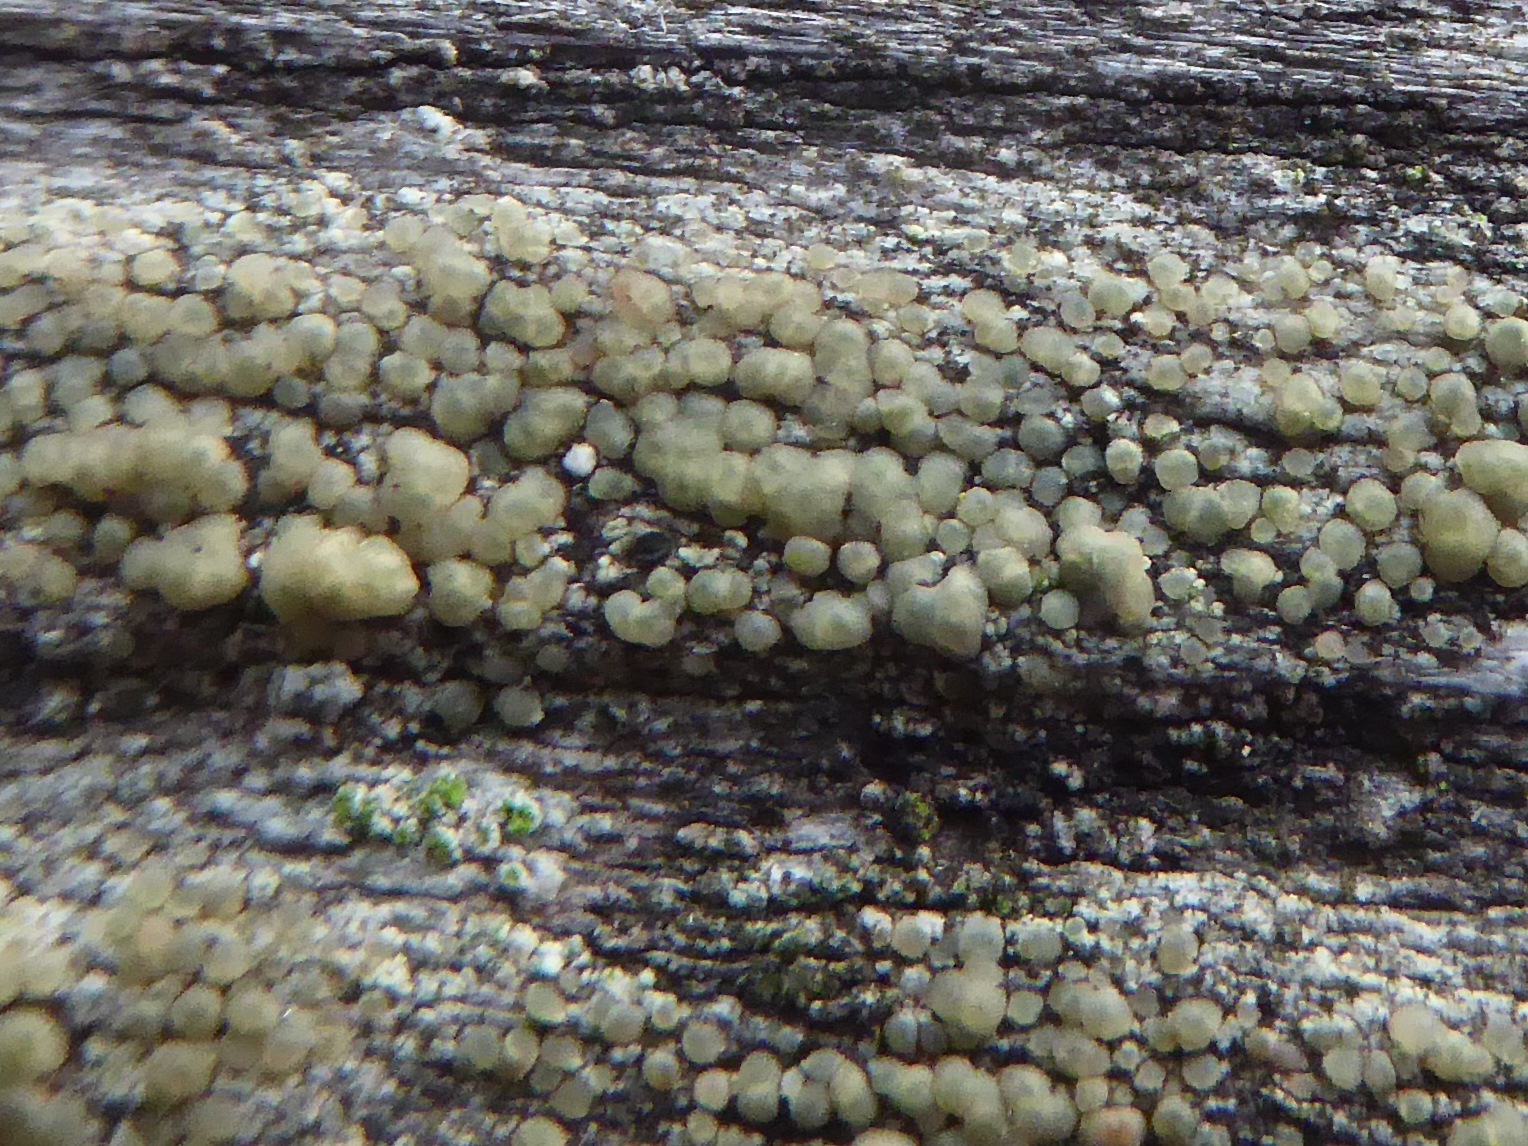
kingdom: Fungi
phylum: Ascomycota
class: Lecanoromycetes
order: Lecanorales
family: Lecanoraceae
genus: Lecanora
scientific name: Lecanora symmicta
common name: kvist-kantskivelav
